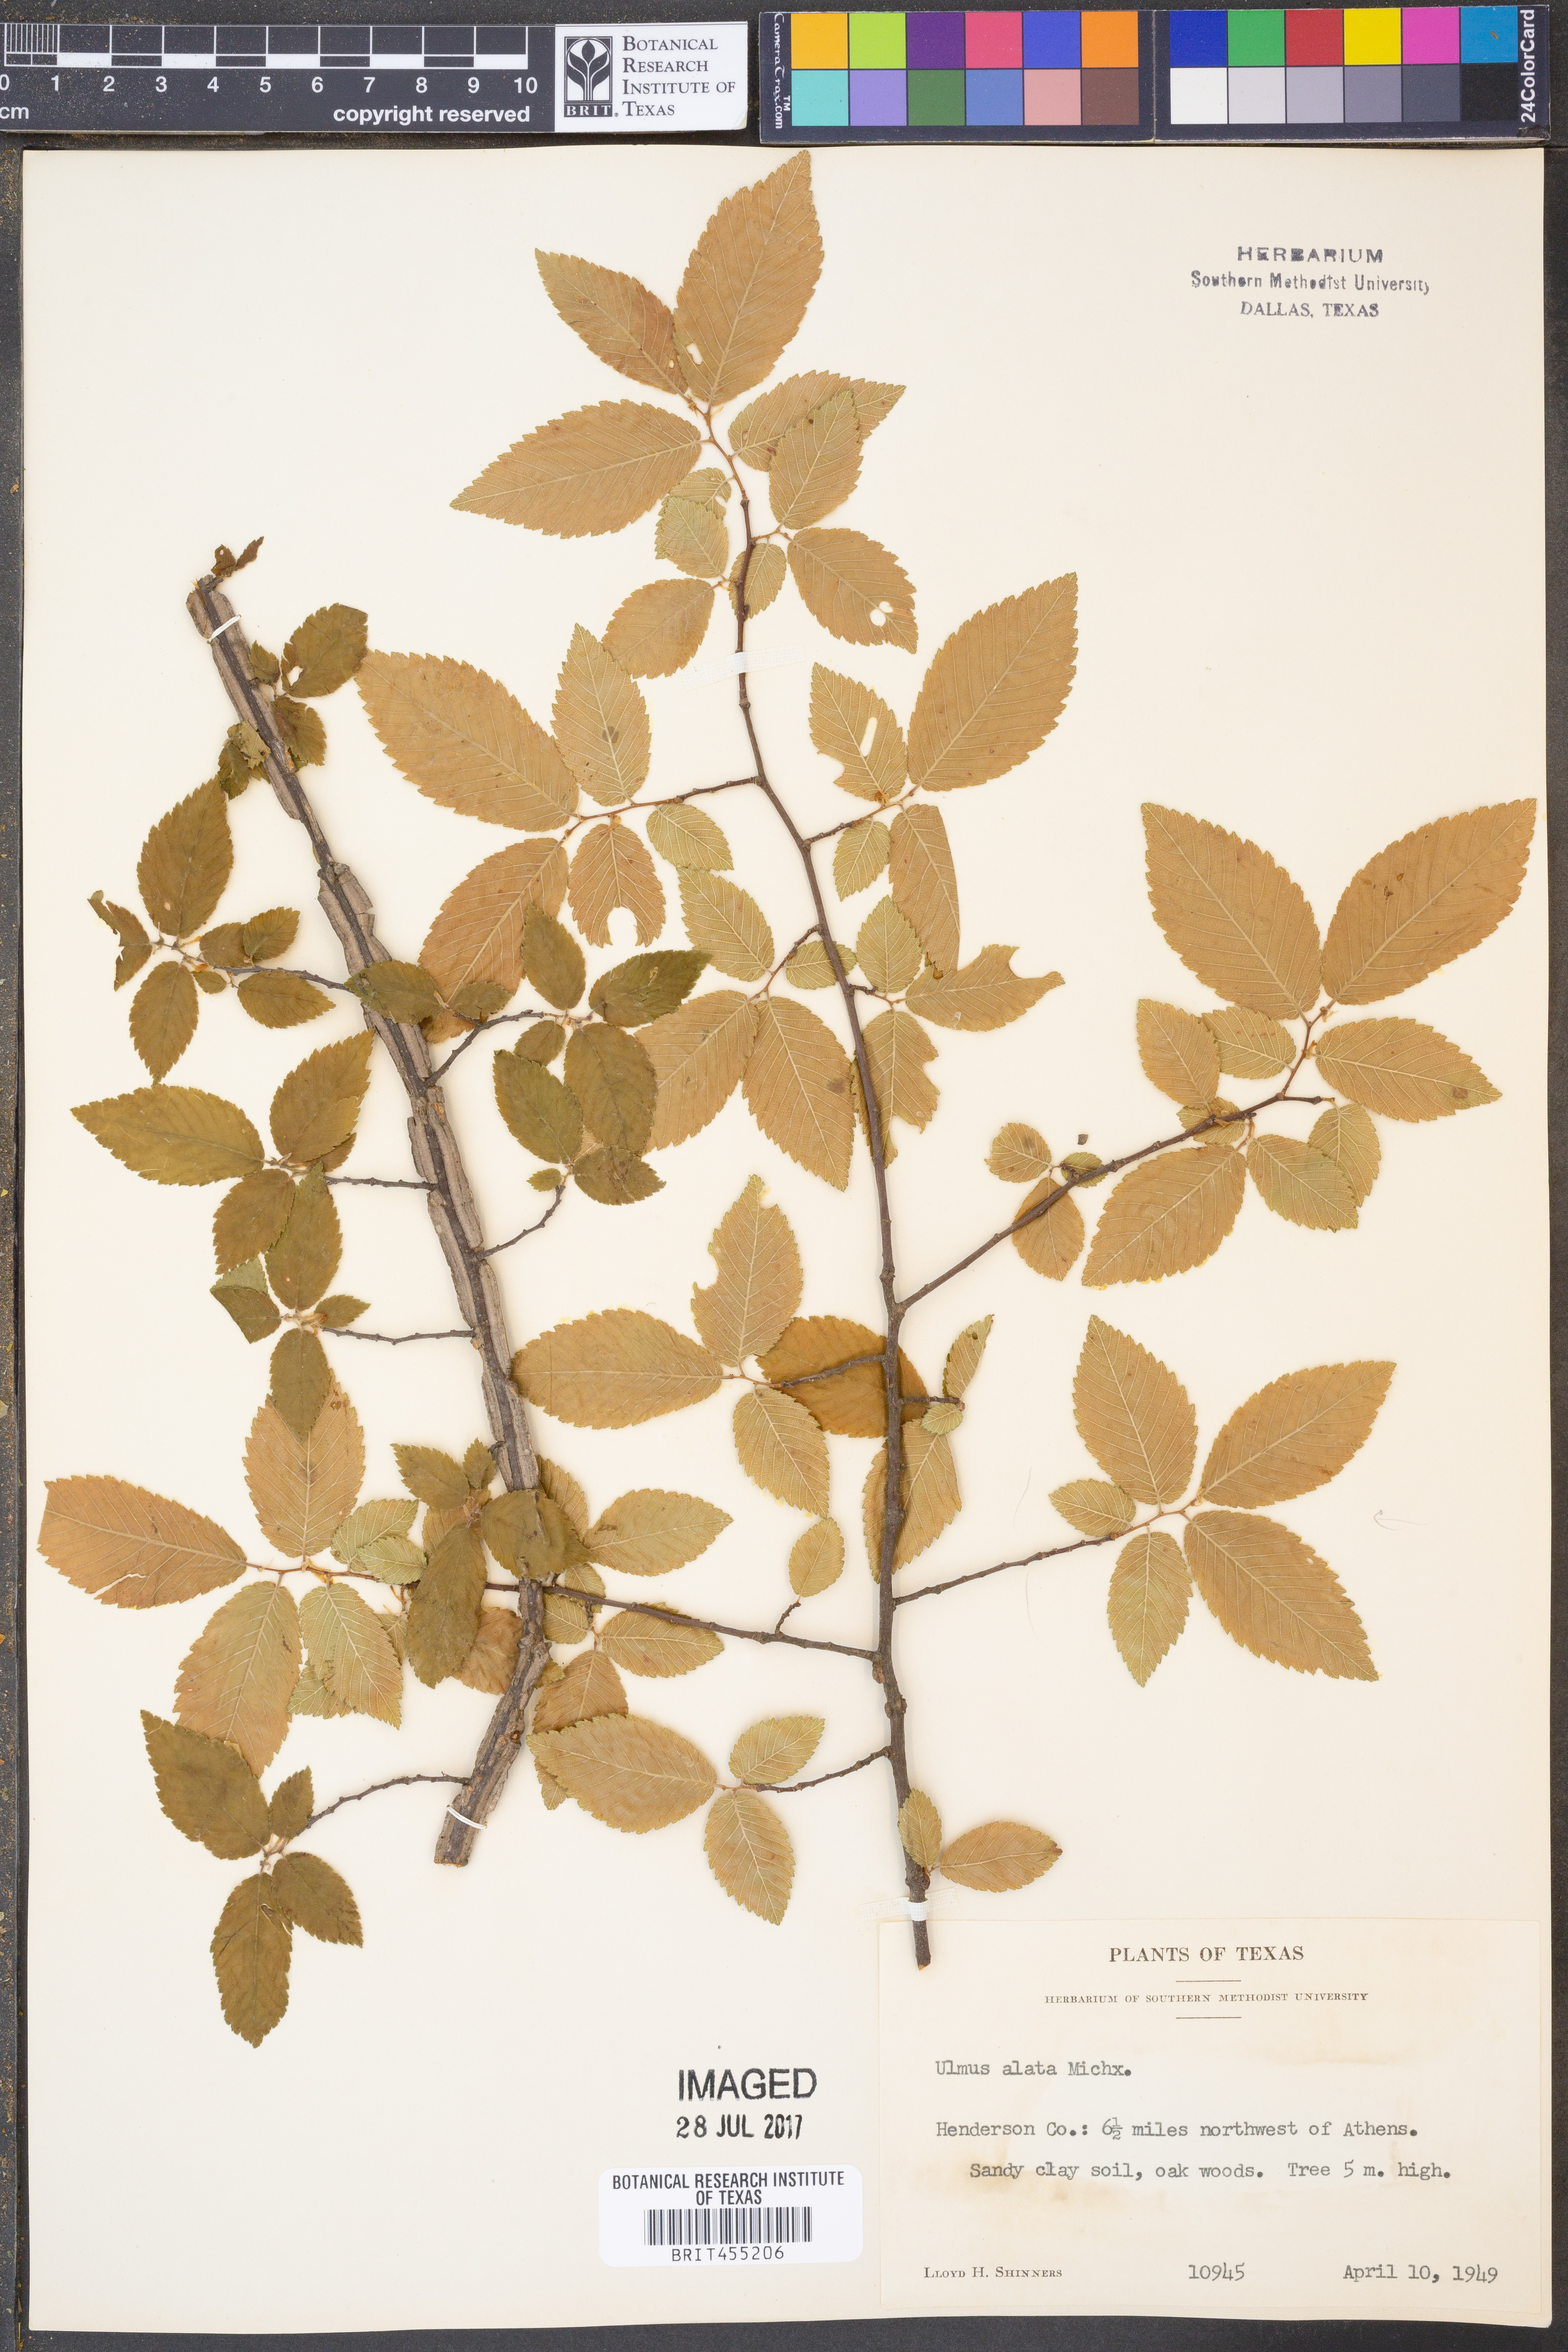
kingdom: Plantae
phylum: Tracheophyta
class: Magnoliopsida
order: Rosales
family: Ulmaceae
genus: Ulmus
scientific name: Ulmus alata
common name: Winged elm
